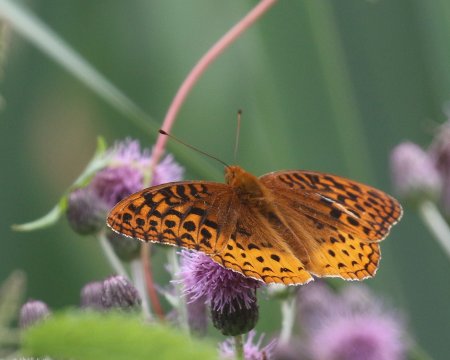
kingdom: Animalia
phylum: Arthropoda
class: Insecta
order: Lepidoptera
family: Nymphalidae
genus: Speyeria
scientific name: Speyeria cybele
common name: Great Spangled Fritillary
